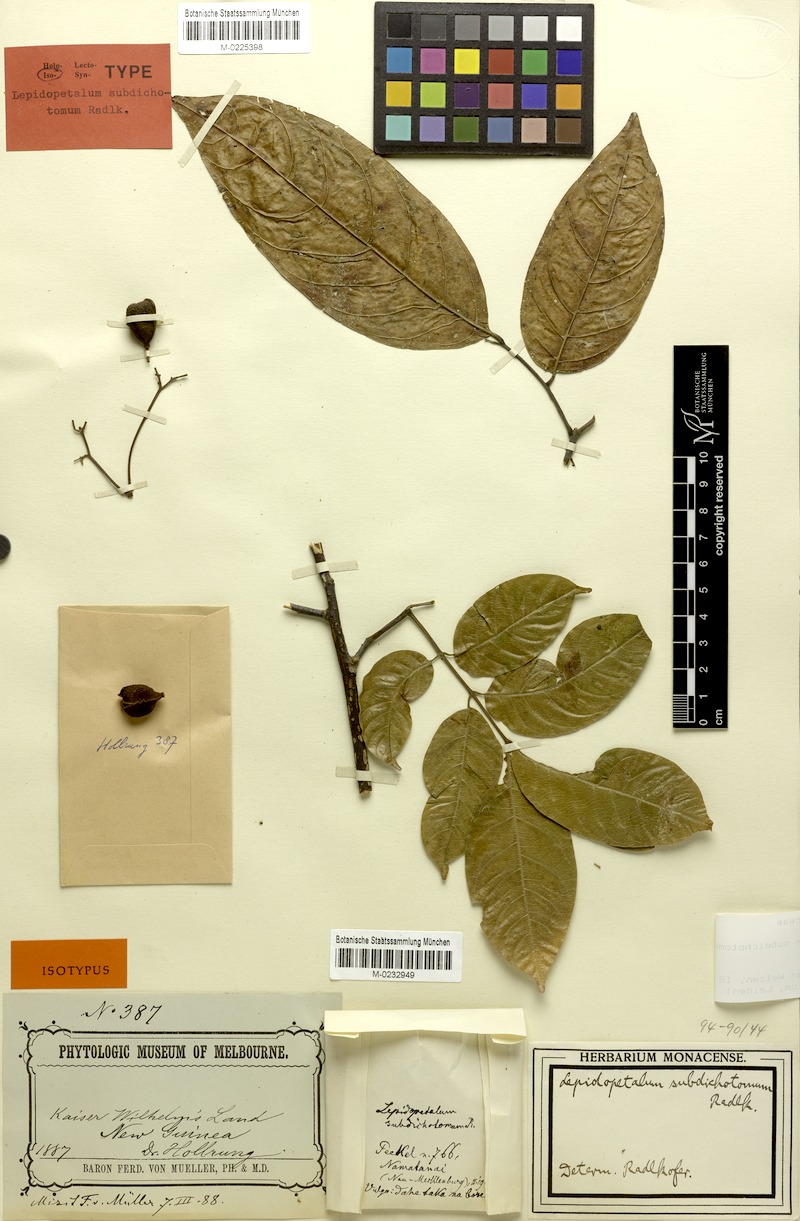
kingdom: Plantae
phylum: Tracheophyta
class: Magnoliopsida
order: Sapindales
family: Sapindaceae
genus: Lepidopetalum
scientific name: Lepidopetalum subdichotomum
